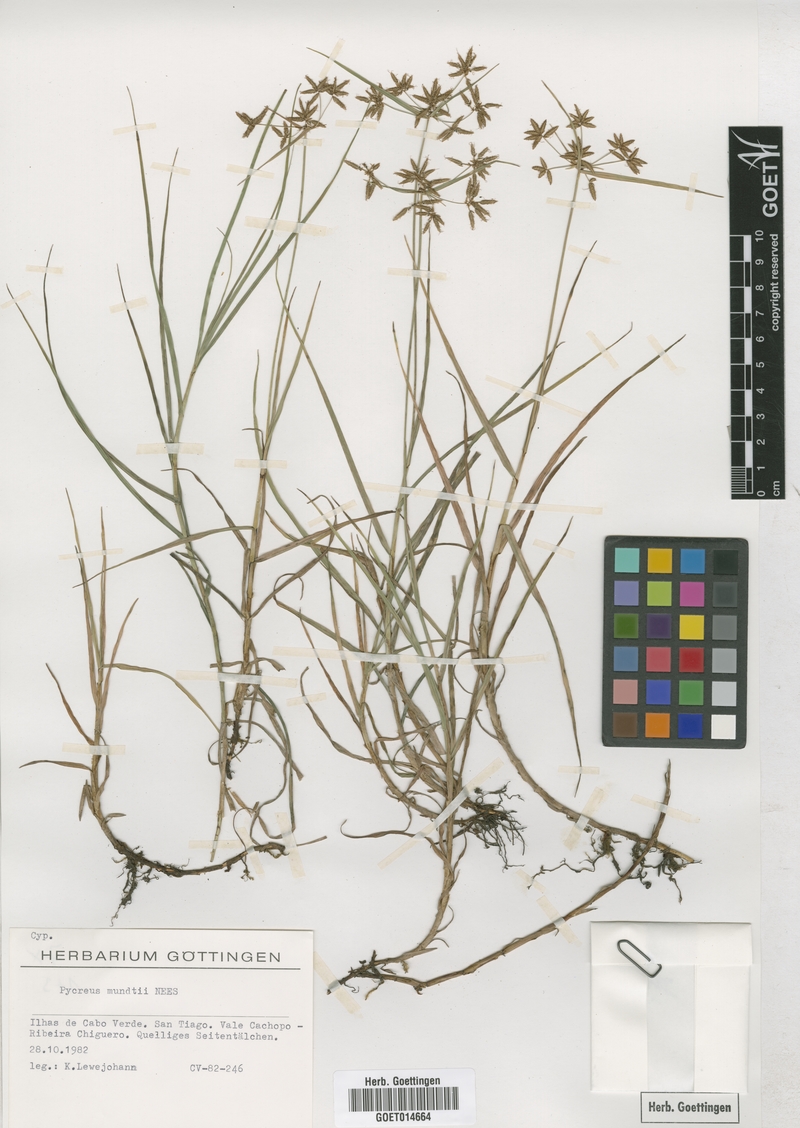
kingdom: Plantae
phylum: Tracheophyta
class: Liliopsida
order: Poales
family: Cyperaceae
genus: Cyperus
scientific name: Cyperus mundii
